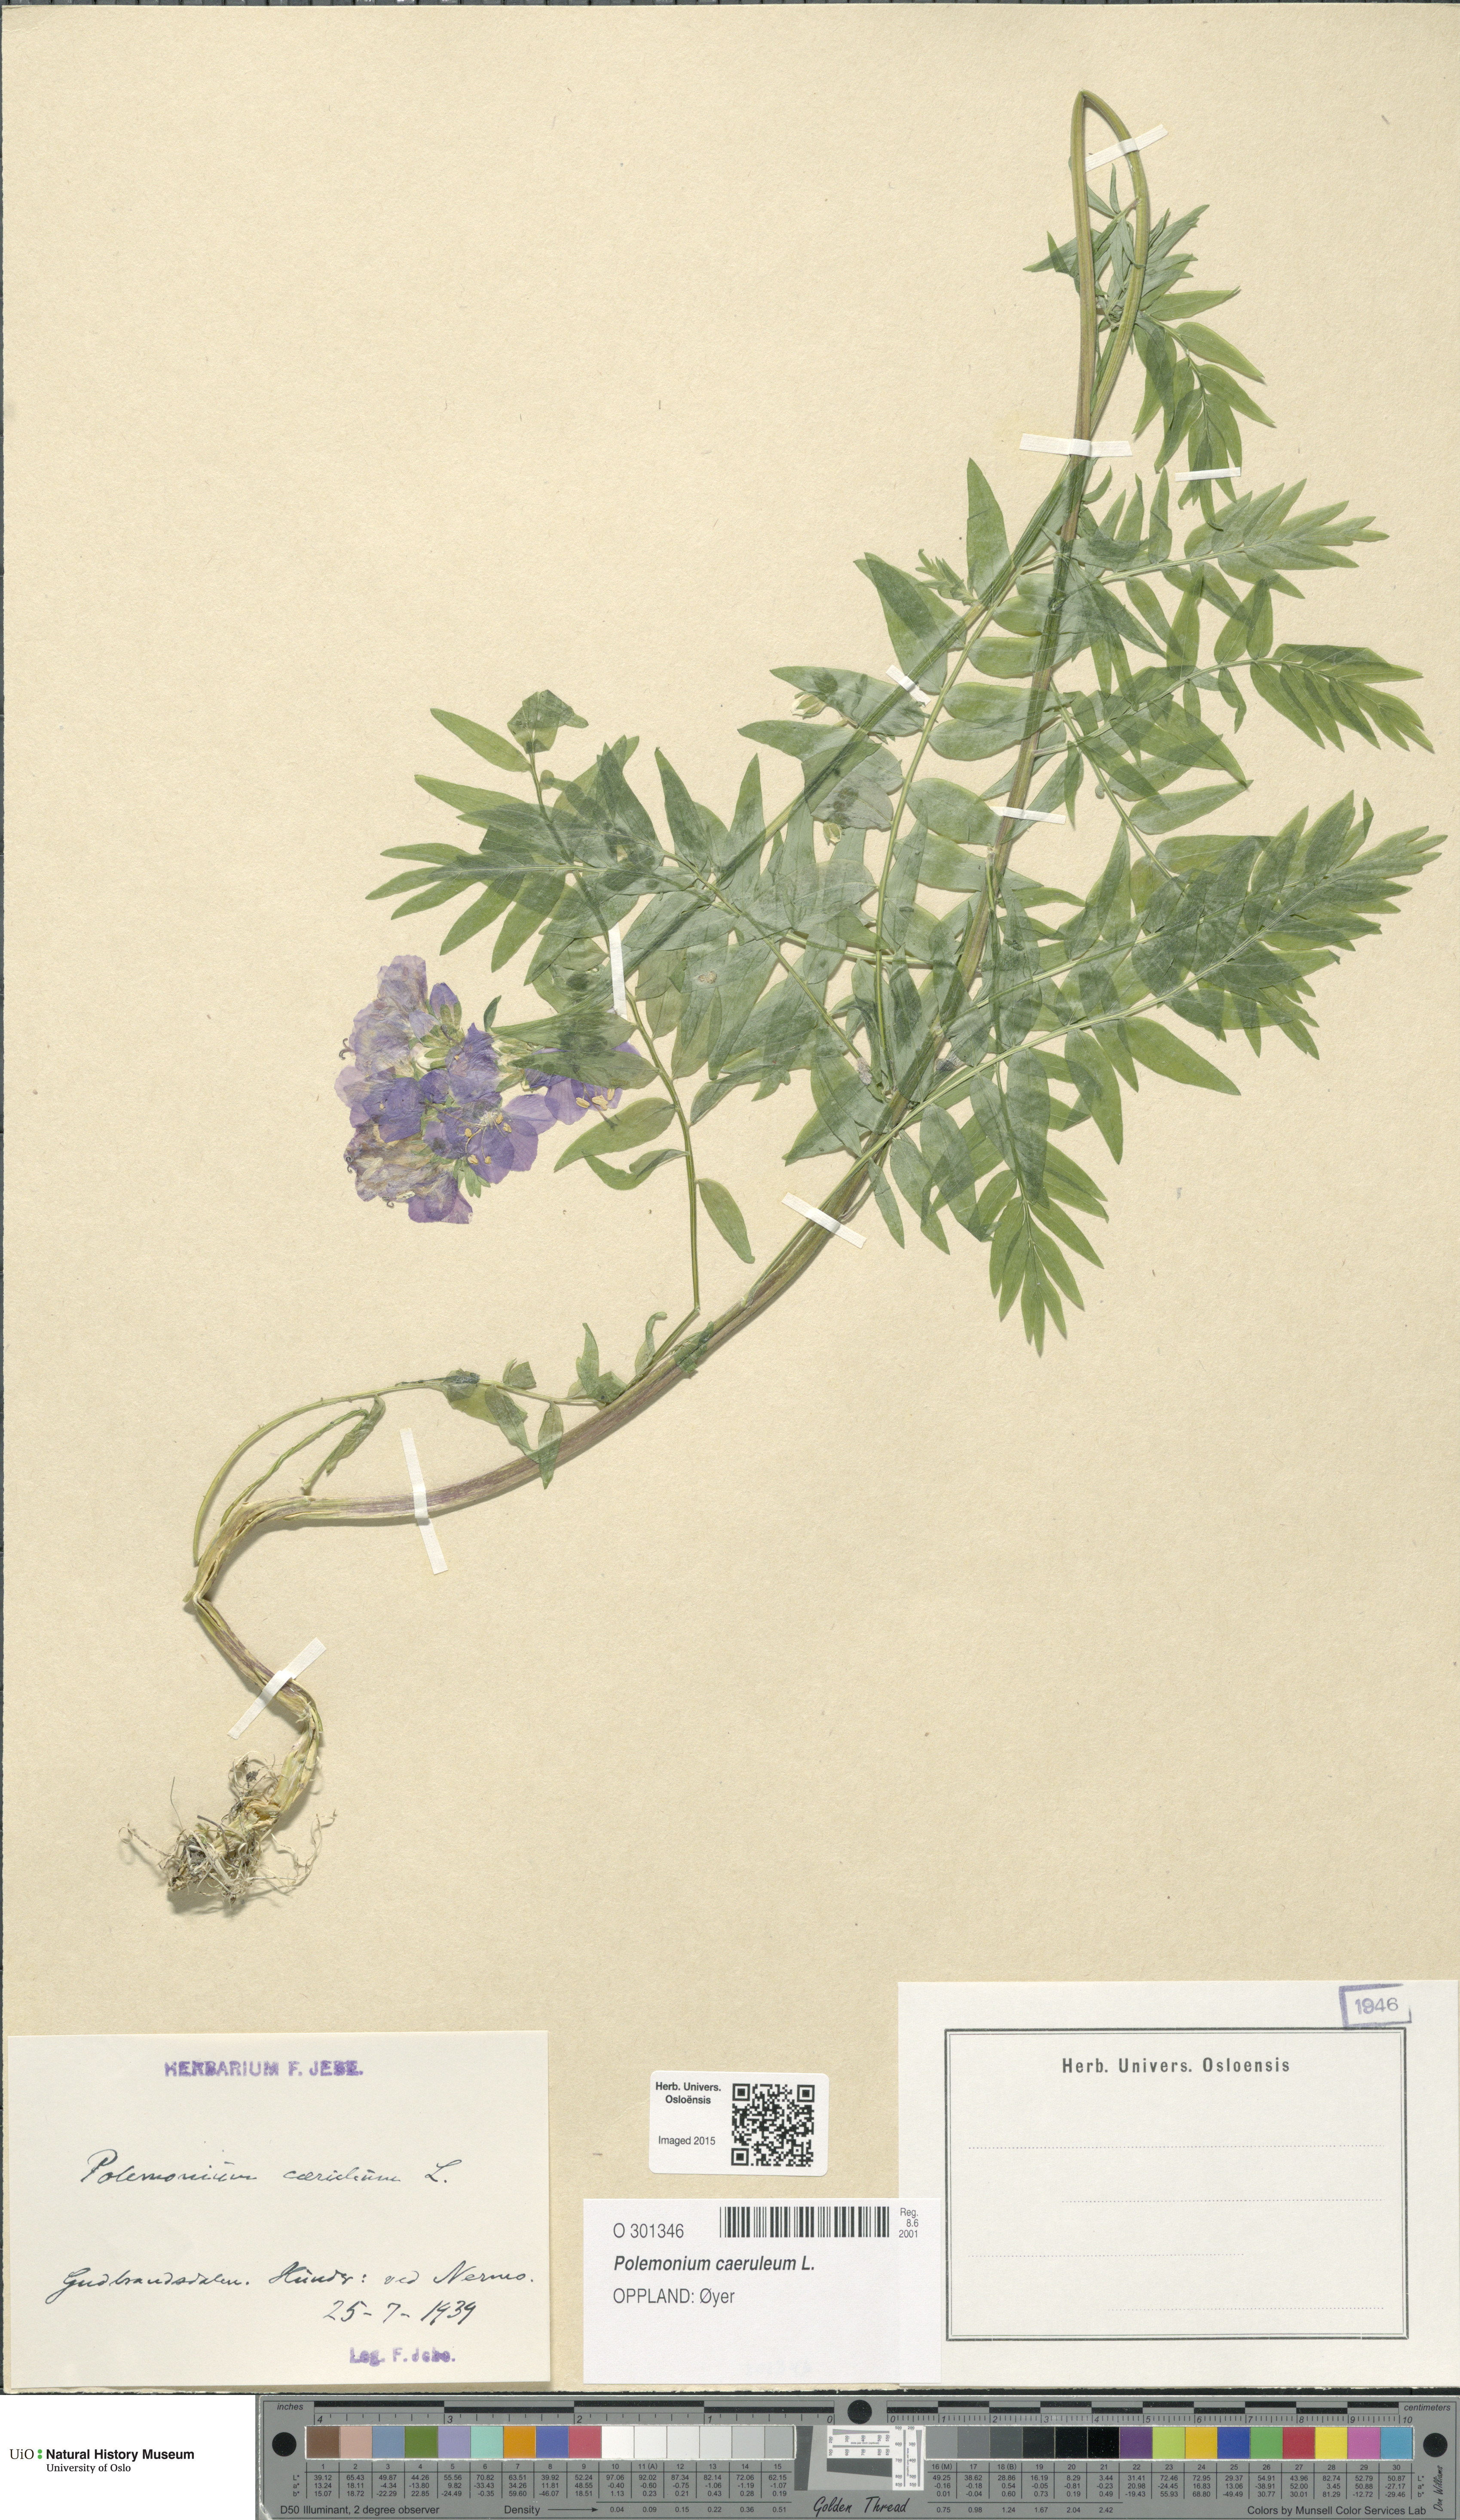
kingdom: Plantae
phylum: Tracheophyta
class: Magnoliopsida
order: Ericales
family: Polemoniaceae
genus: Polemonium
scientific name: Polemonium caeruleum
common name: Jacob's-ladder
